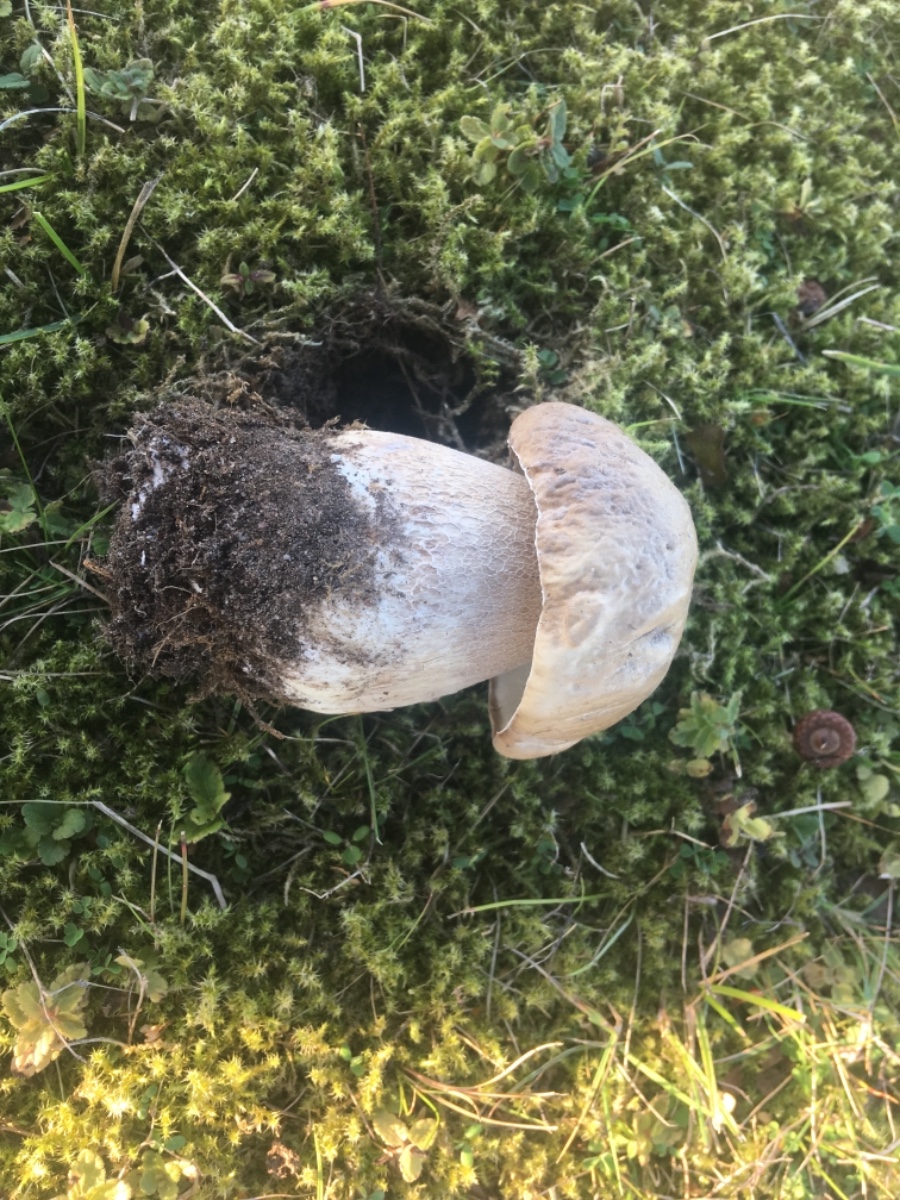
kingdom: Fungi
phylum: Basidiomycota
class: Agaricomycetes
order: Boletales
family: Boletaceae
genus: Boletus
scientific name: Boletus edulis
